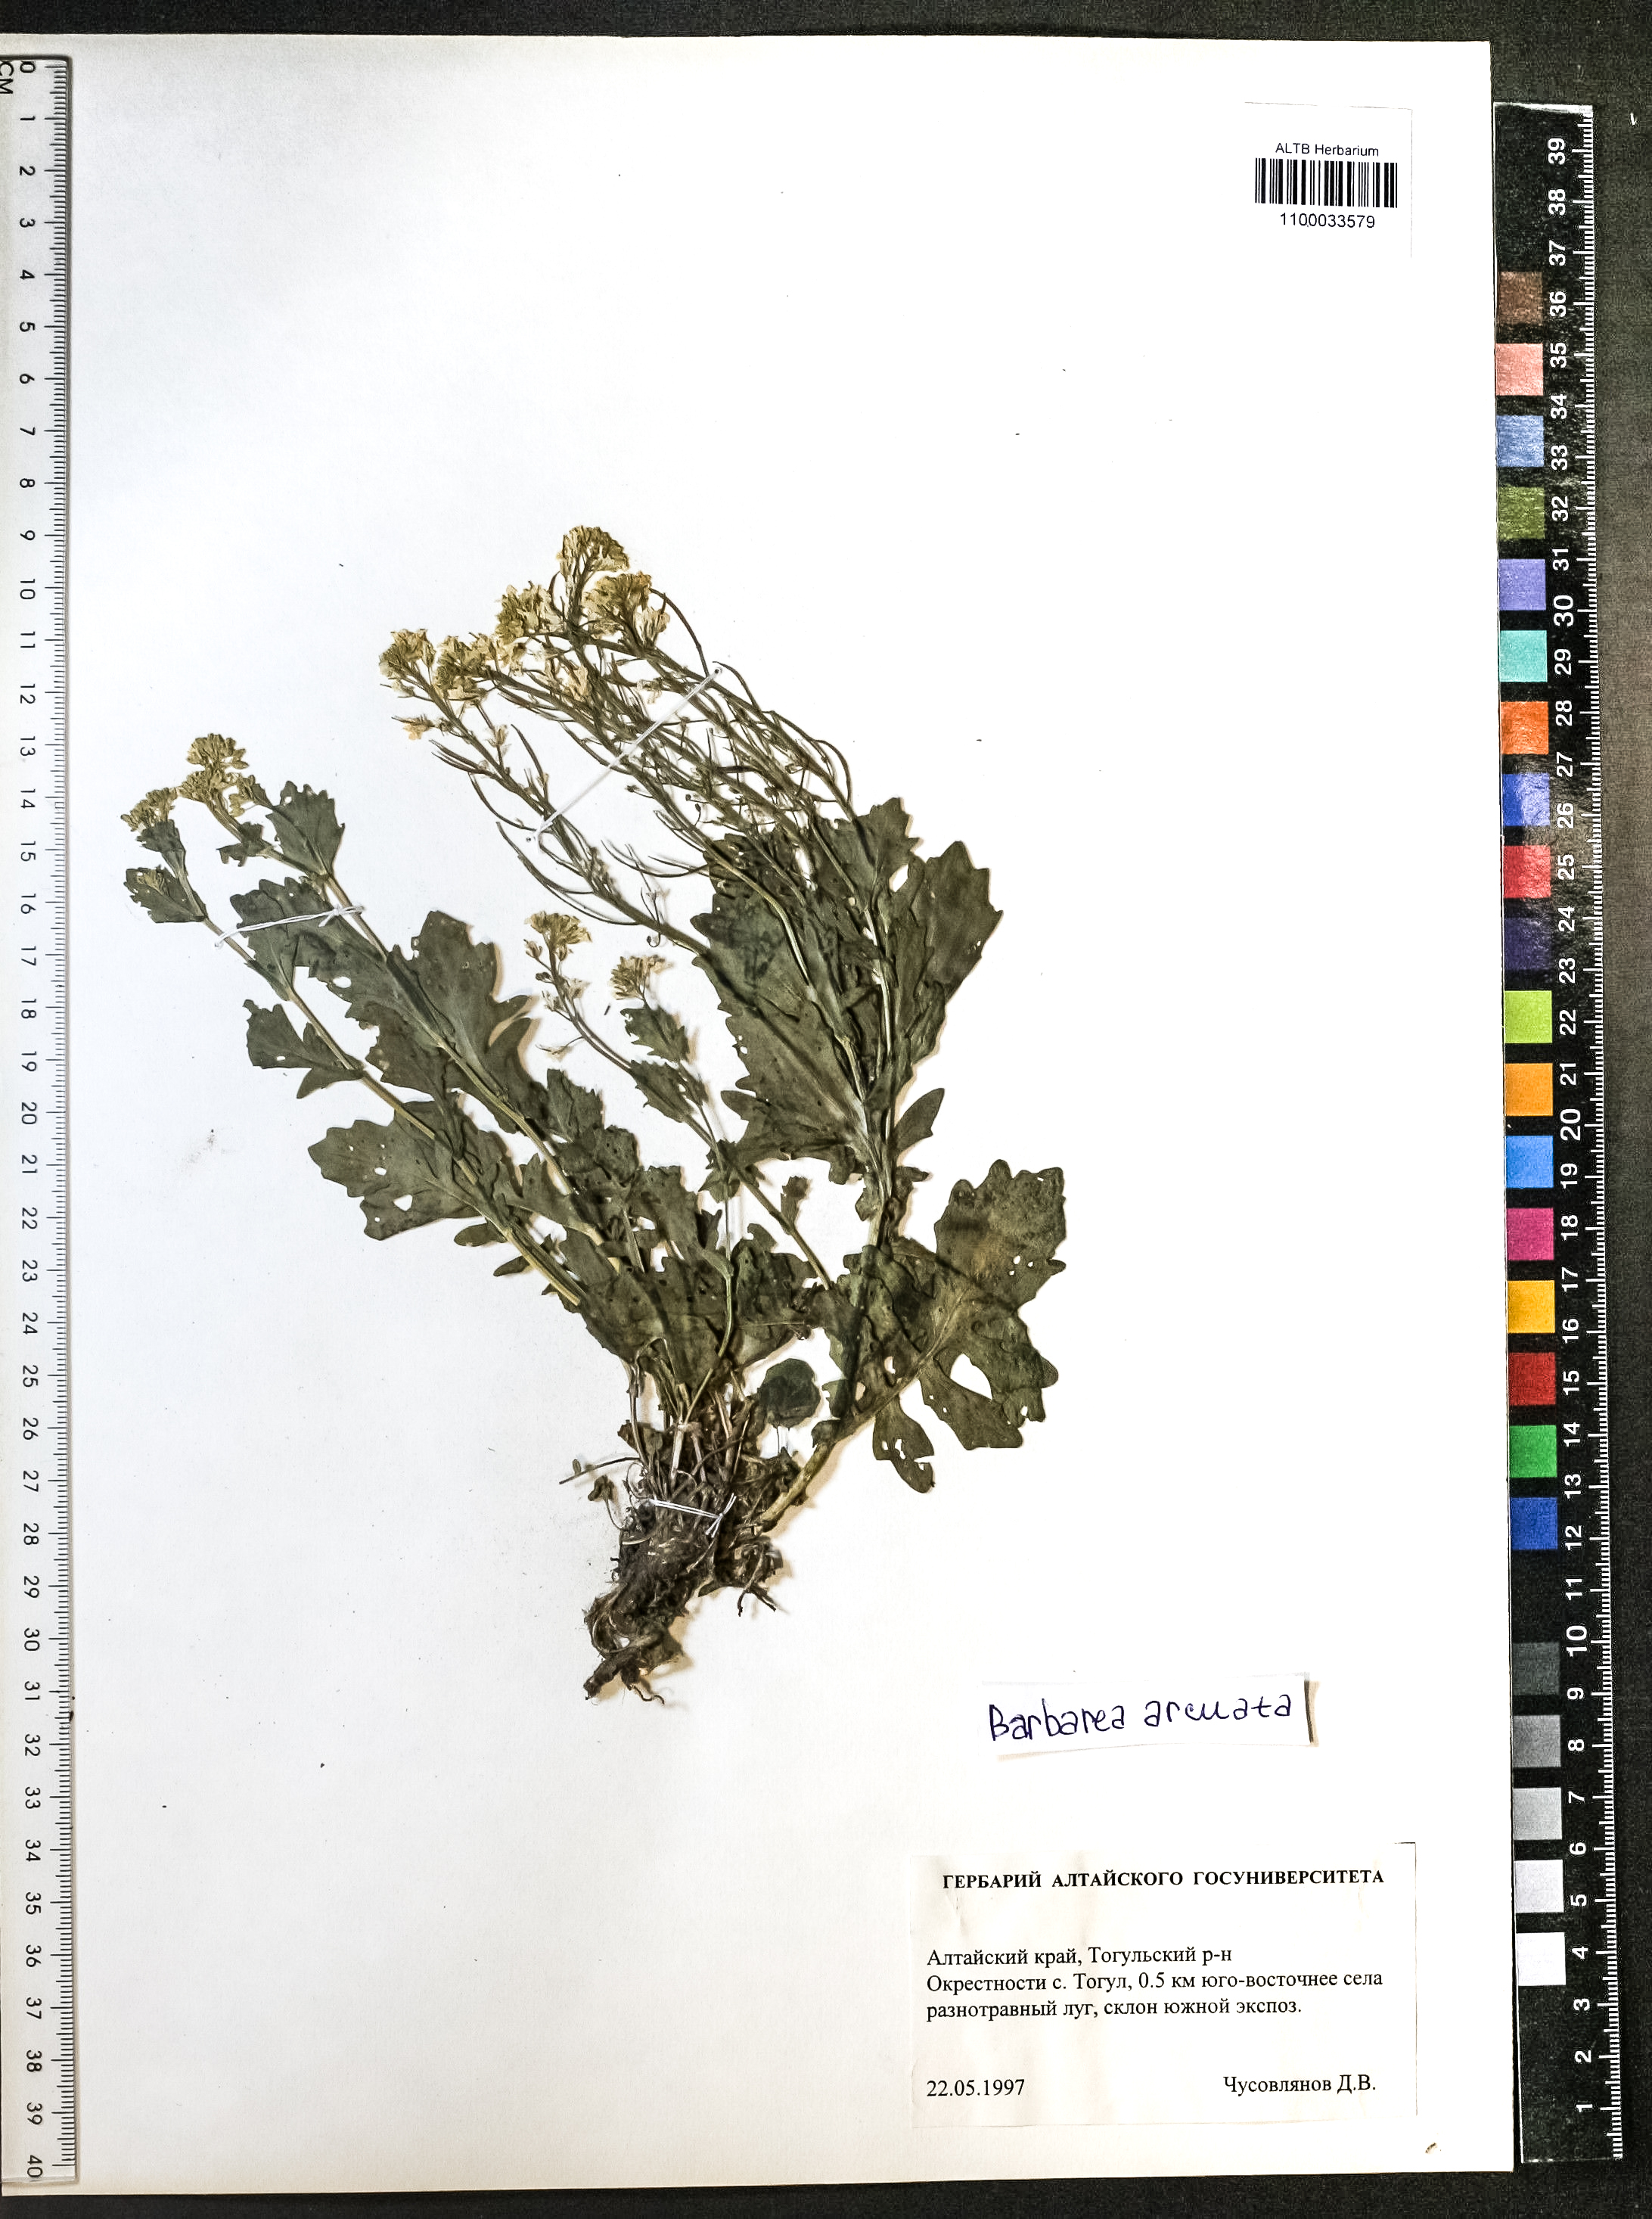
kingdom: Plantae
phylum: Tracheophyta
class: Magnoliopsida
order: Brassicales
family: Brassicaceae
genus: Barbarea
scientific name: Barbarea vulgaris
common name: Cressy-greens
